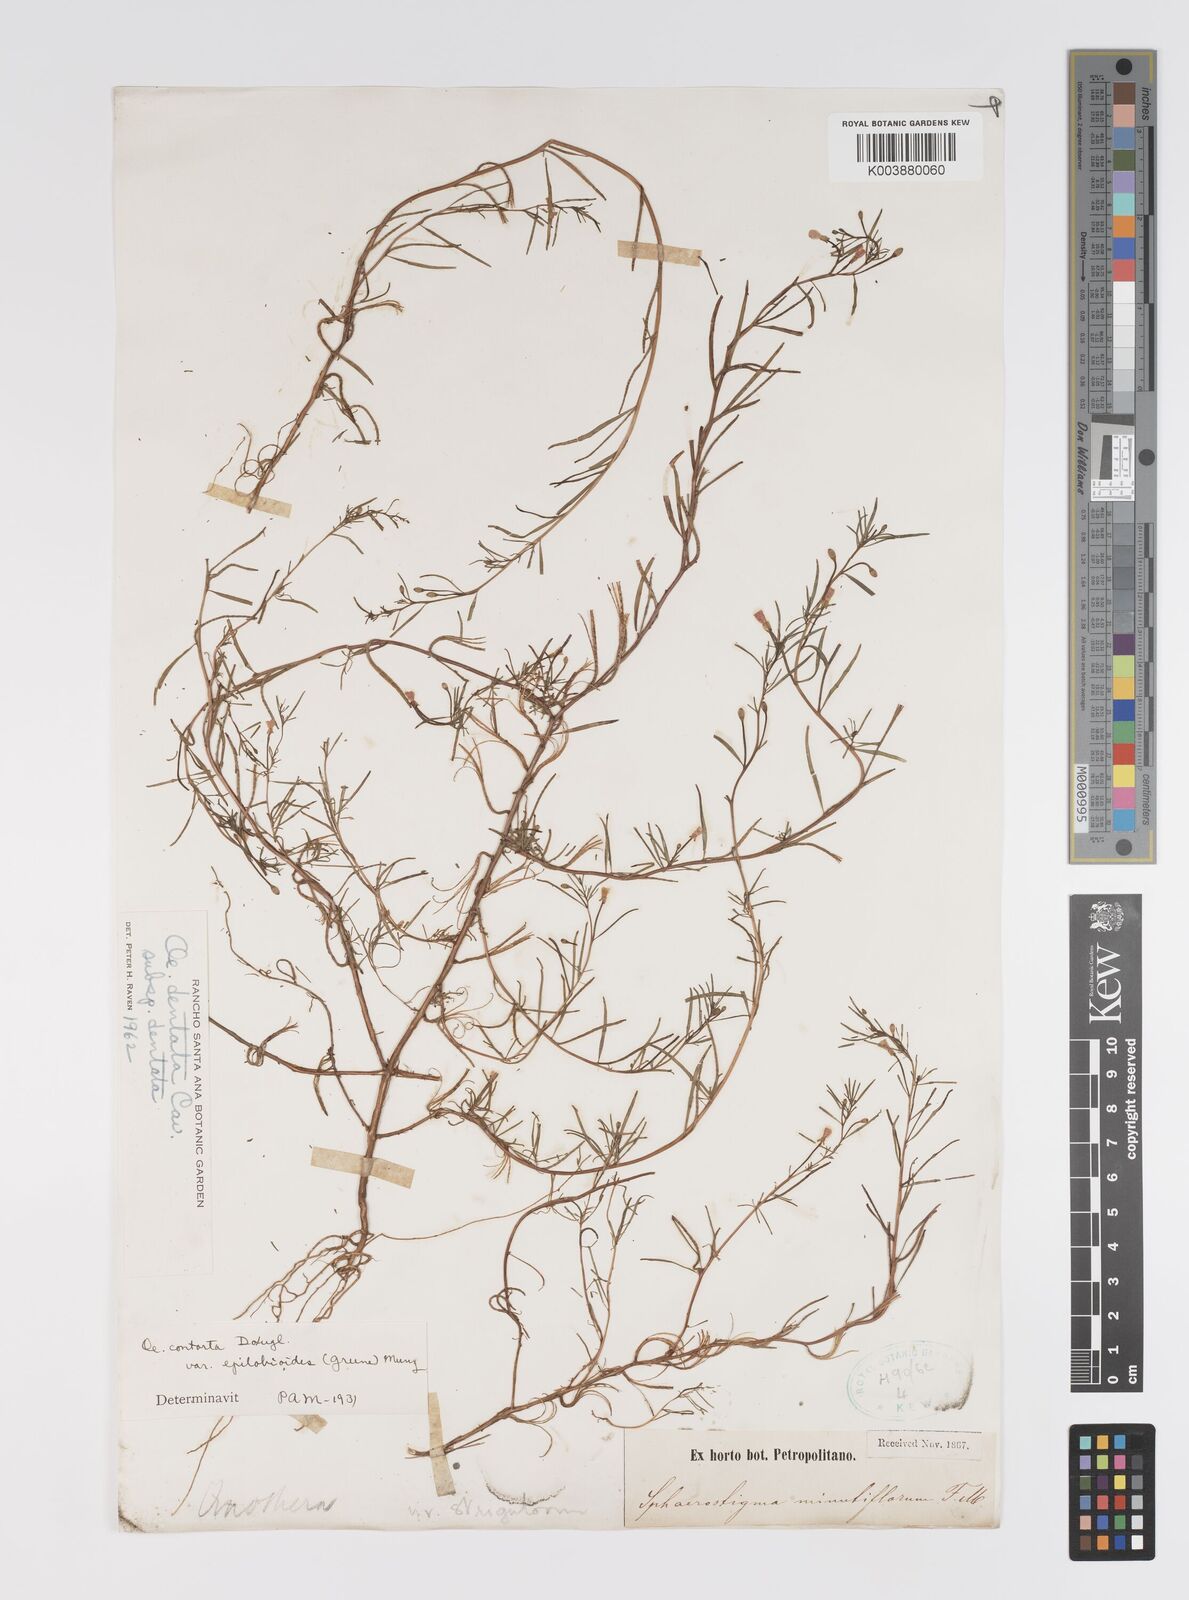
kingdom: Plantae
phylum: Tracheophyta
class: Magnoliopsida
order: Myrtales
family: Onagraceae
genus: Camissonia
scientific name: Camissonia dentata
